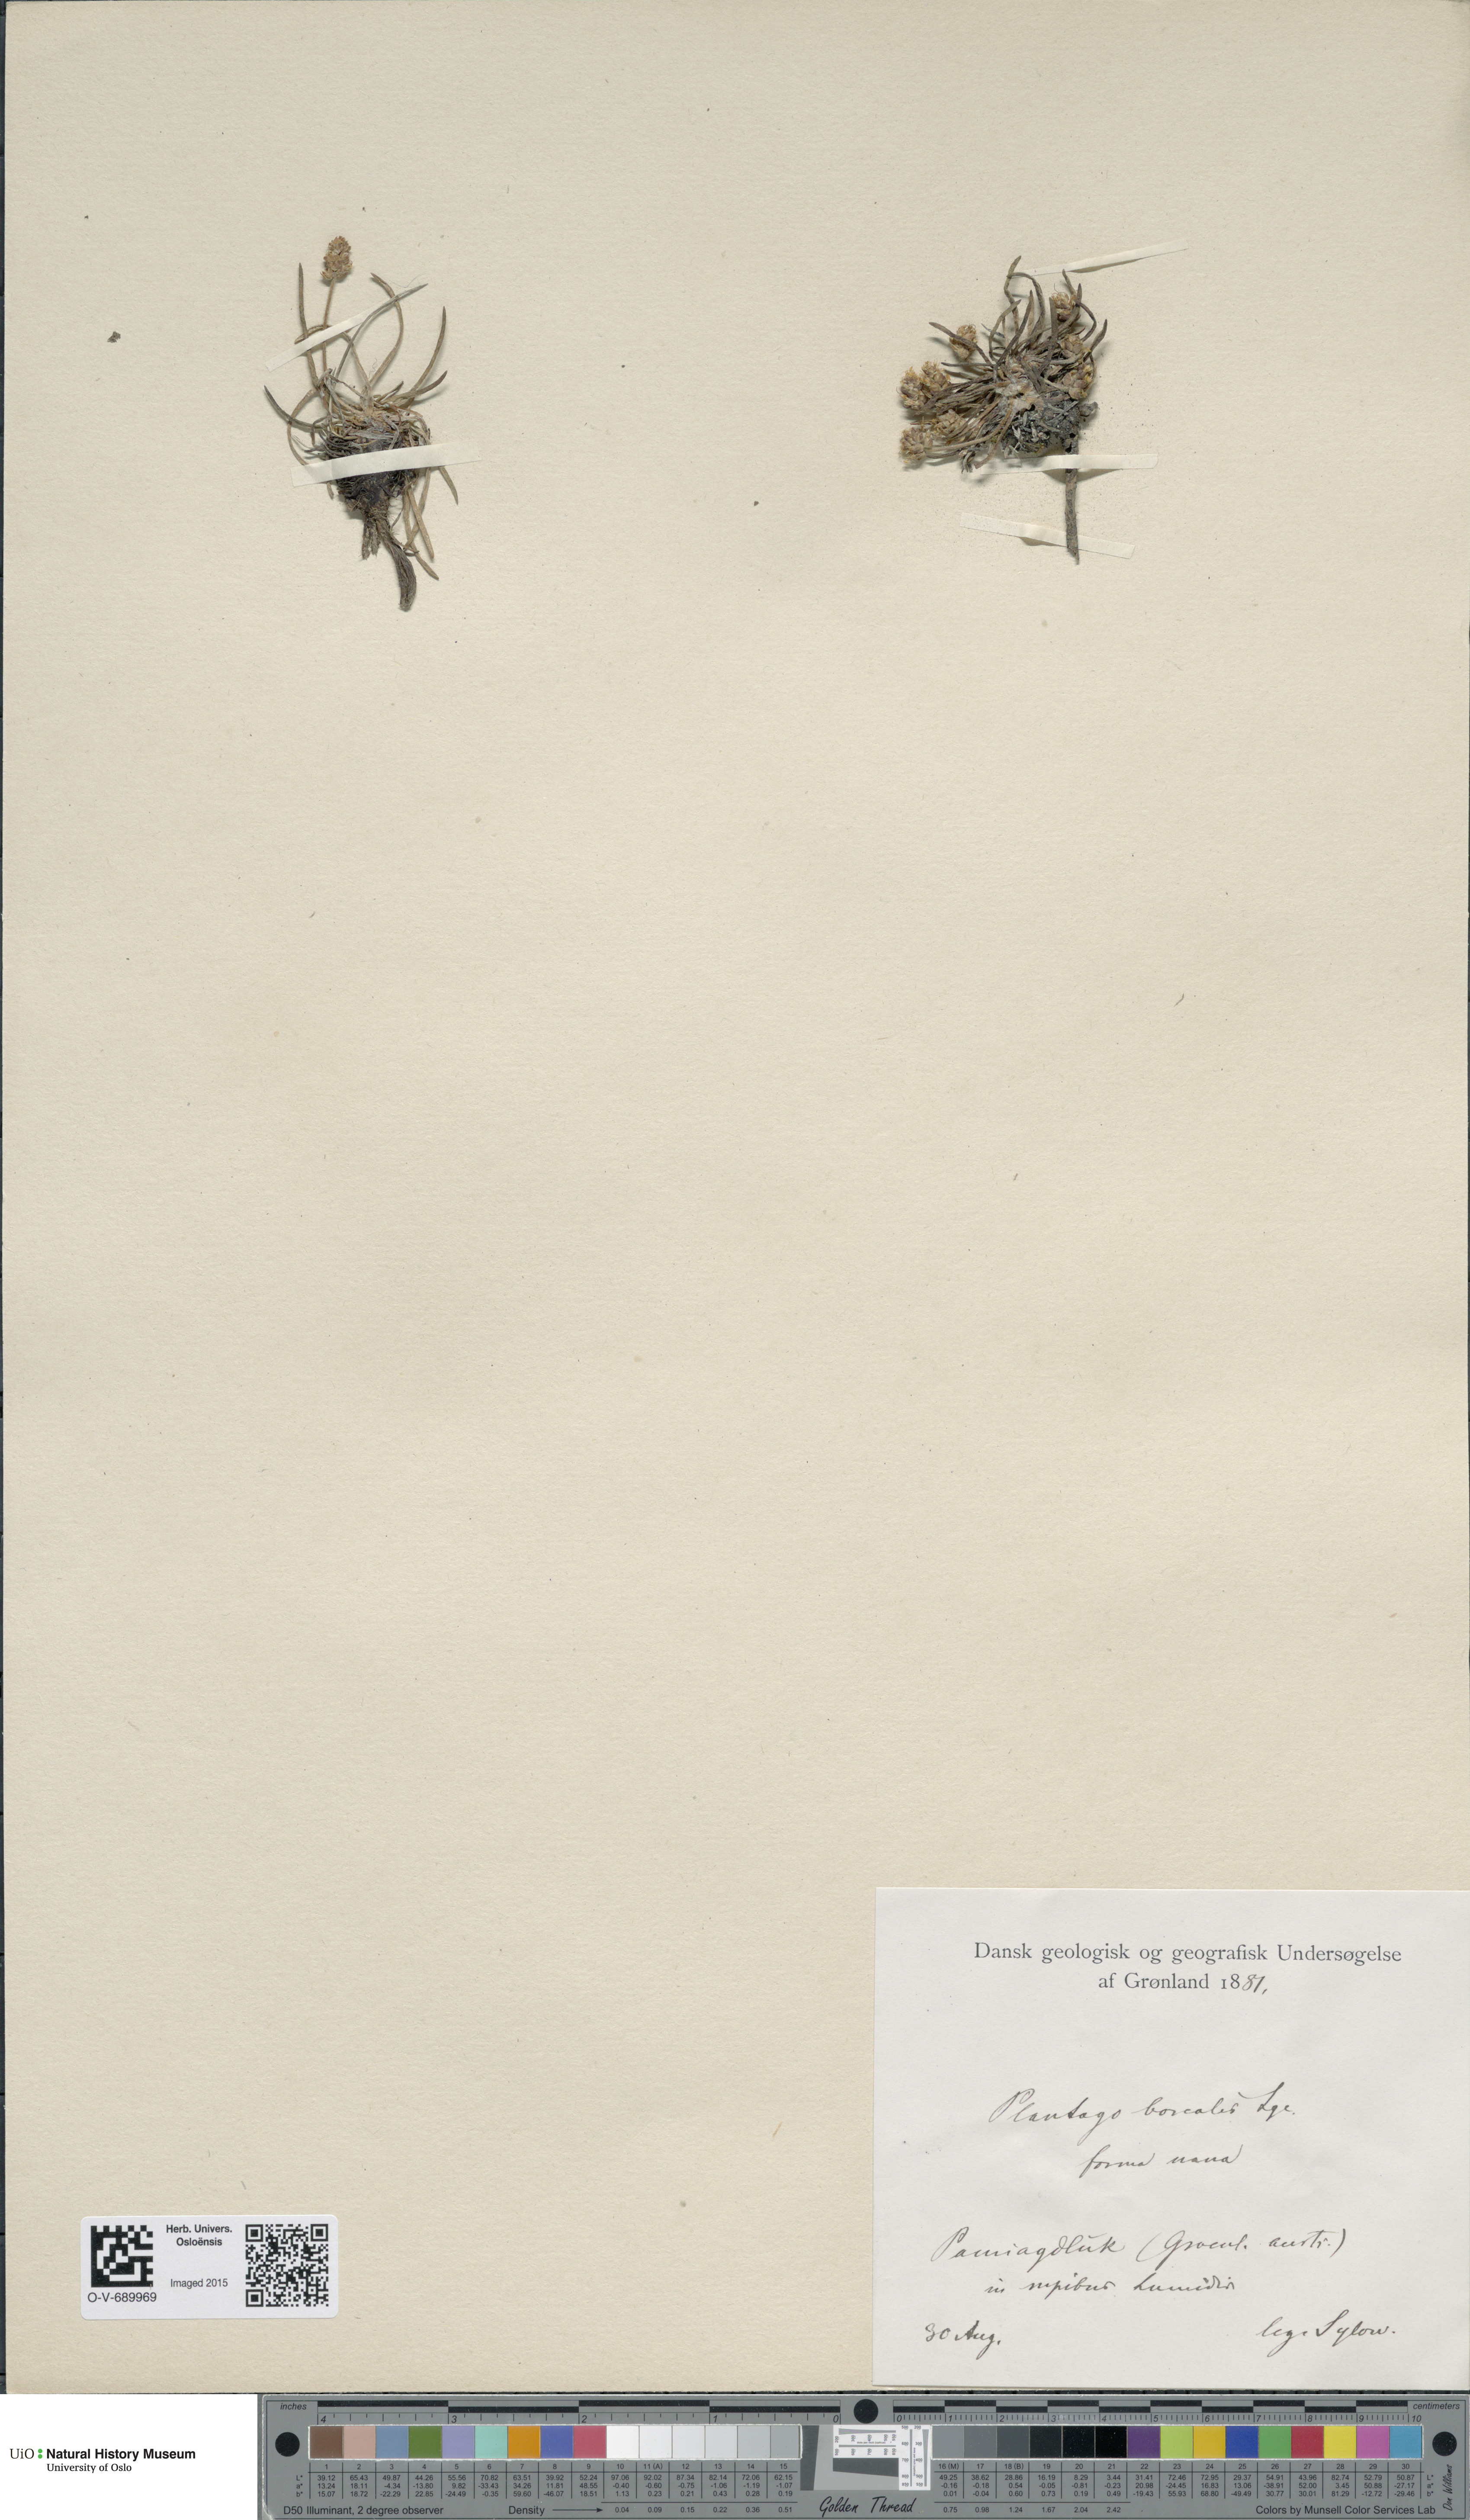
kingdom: Plantae
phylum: Tracheophyta
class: Magnoliopsida
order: Lamiales
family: Plantaginaceae
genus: Plantago
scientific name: Plantago maritima
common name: Sea plantain
